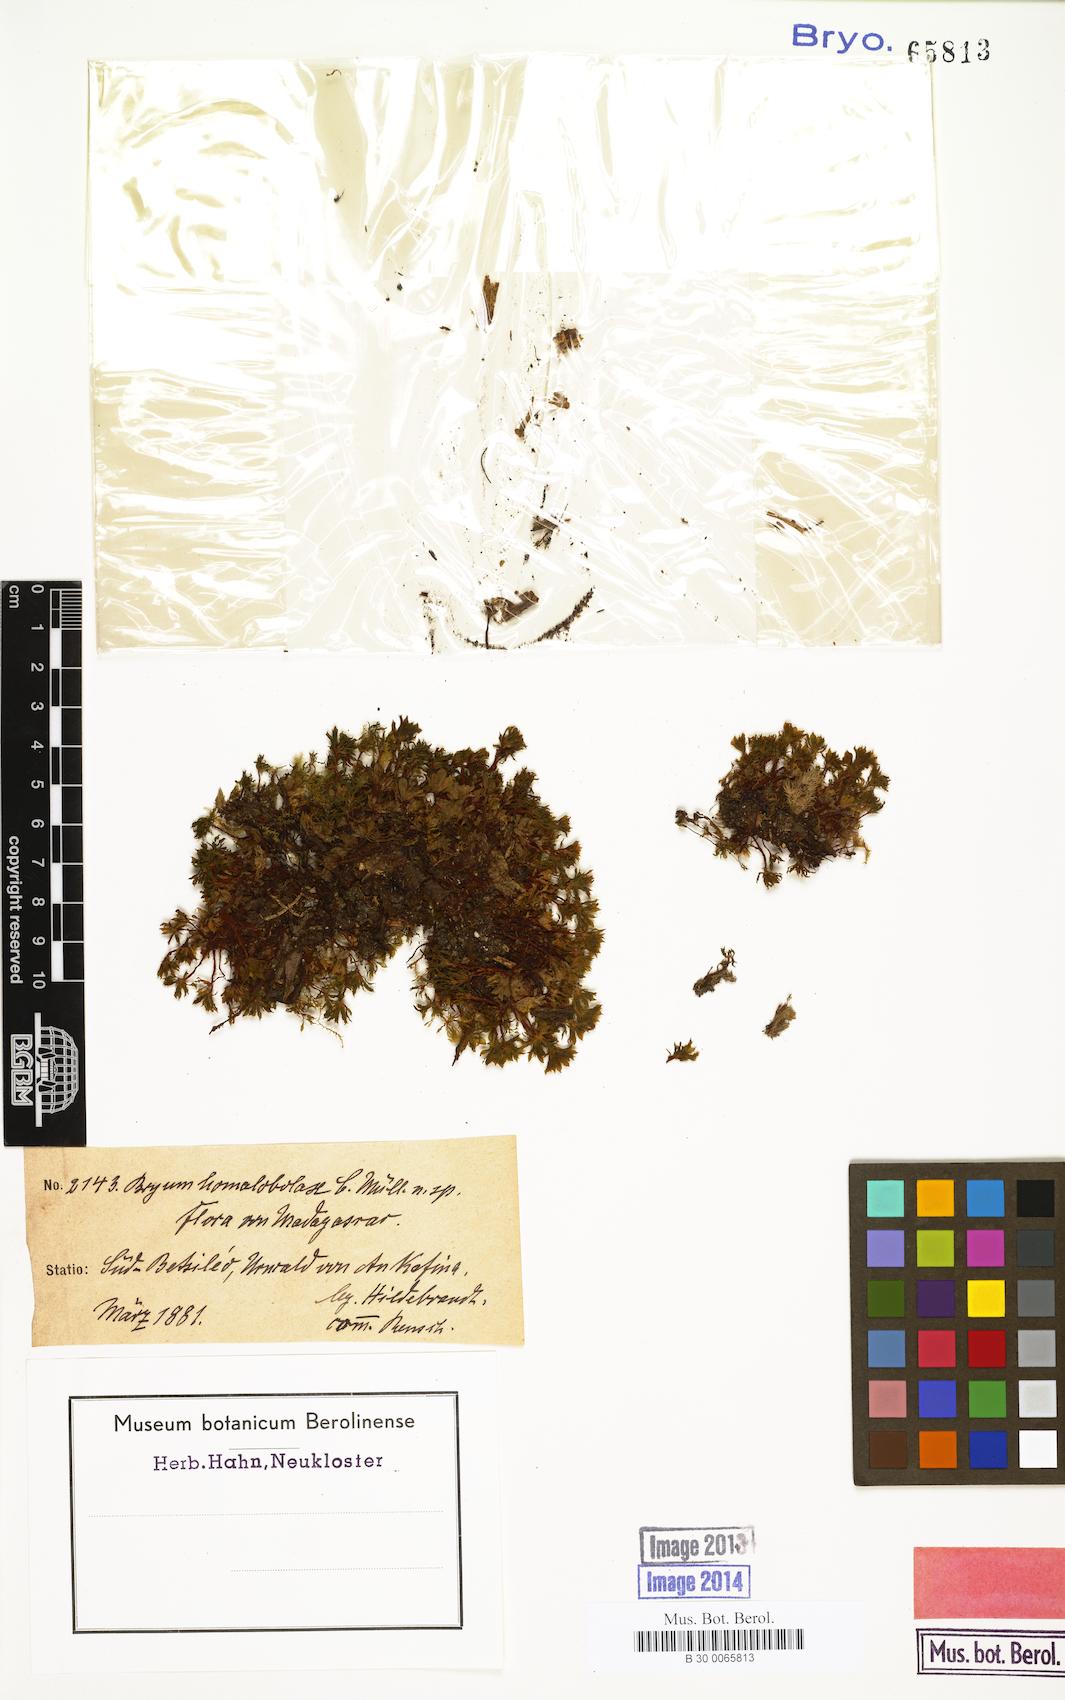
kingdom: Plantae
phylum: Bryophyta
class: Bryopsida
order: Bryales
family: Bryaceae
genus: Rosulabryum
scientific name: Rosulabryum erythrocaulon
